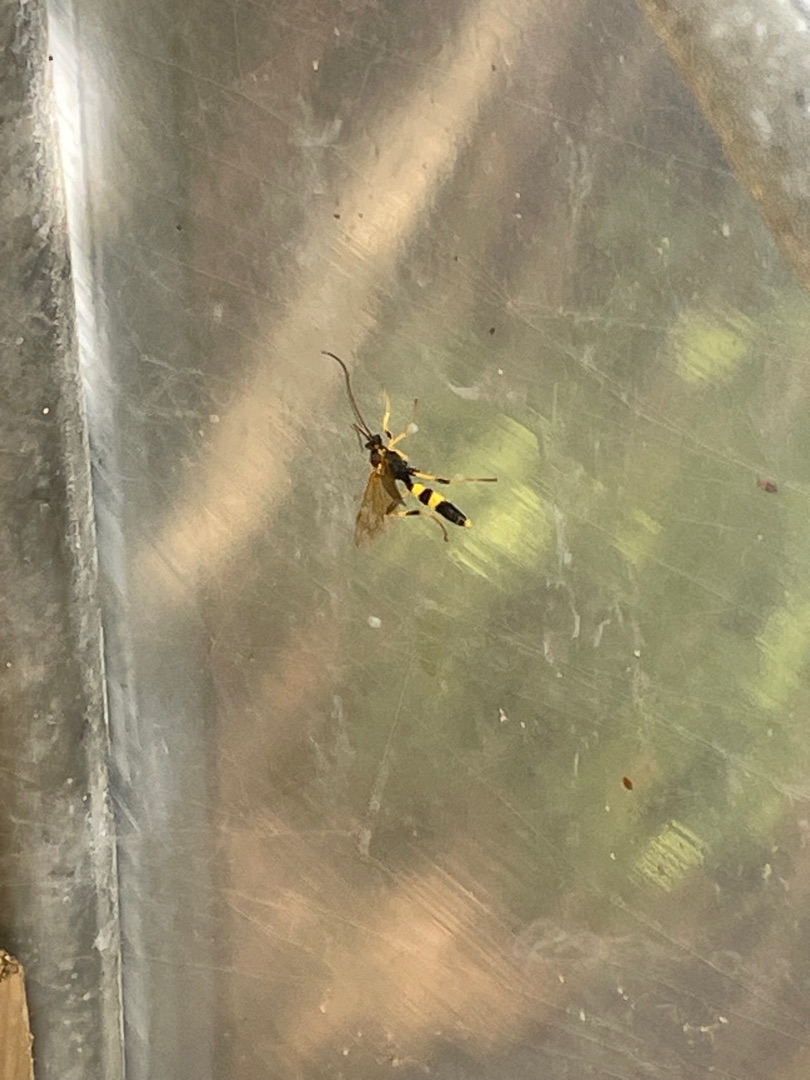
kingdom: Animalia
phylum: Arthropoda
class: Insecta
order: Hymenoptera
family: Ichneumonidae
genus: Amblyteles
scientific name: Amblyteles armatorius
